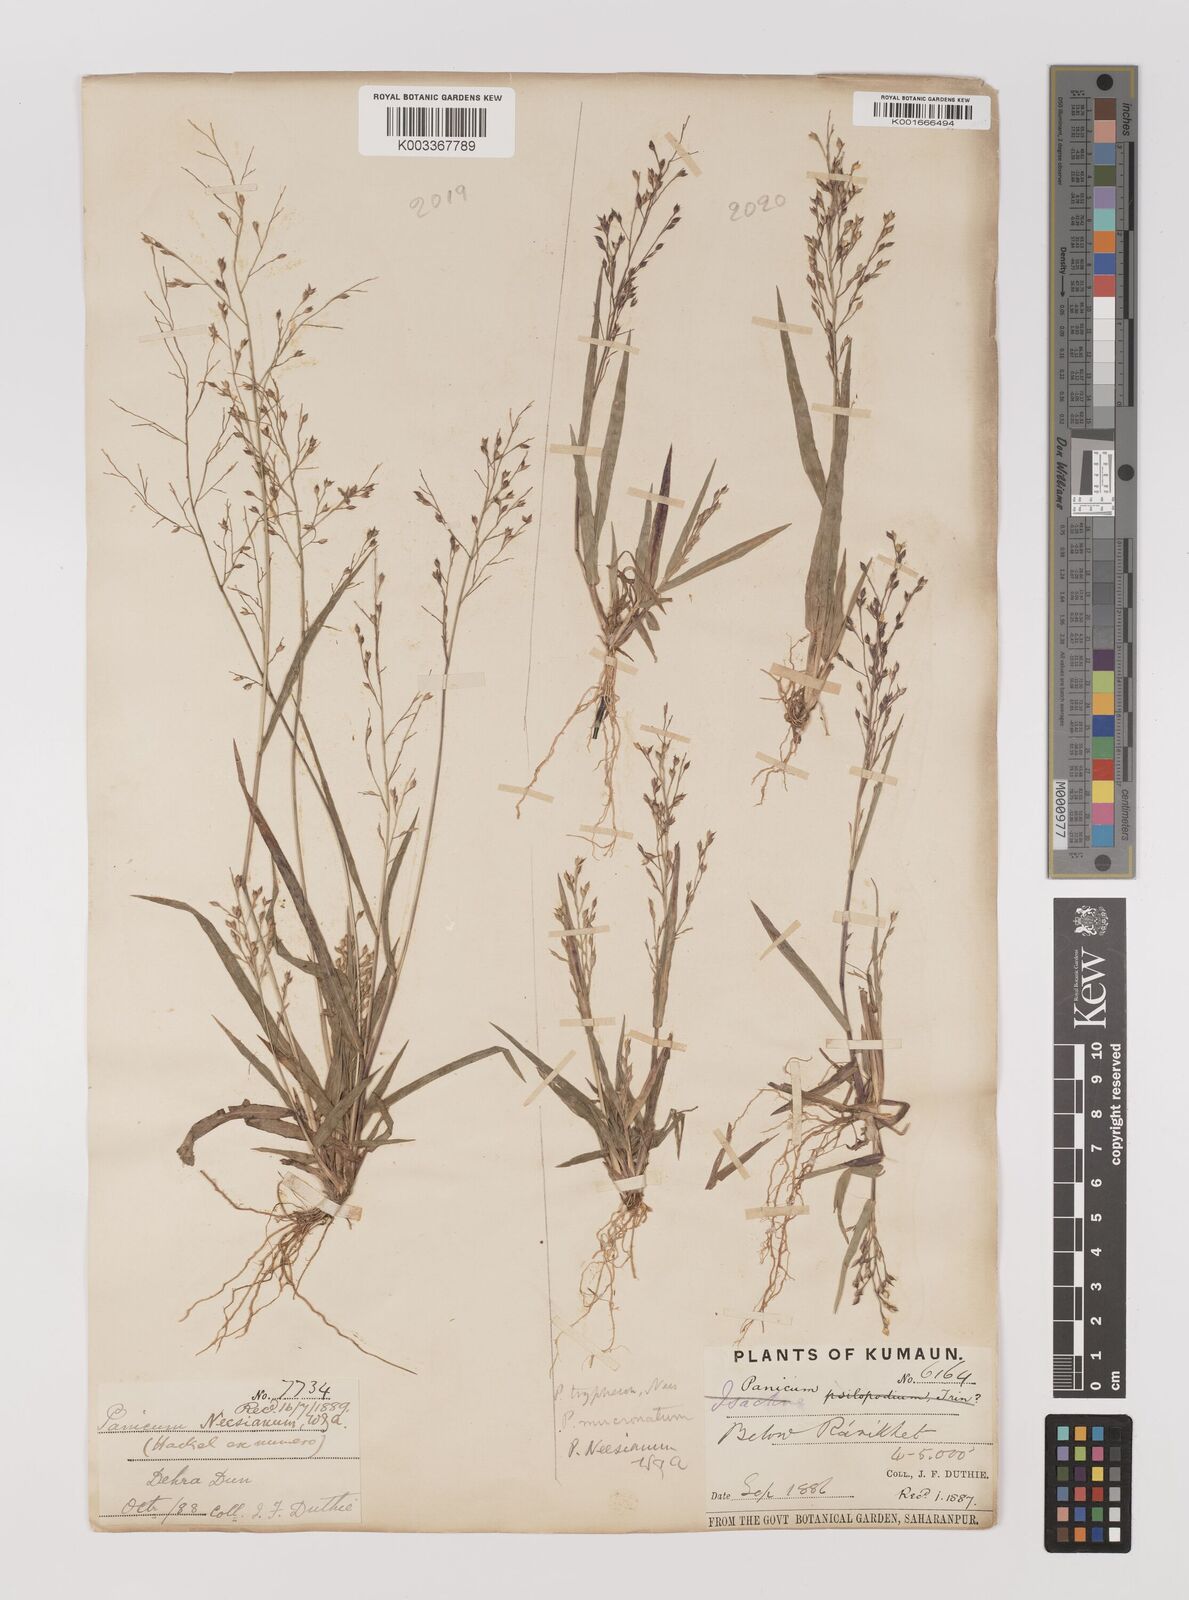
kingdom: Plantae
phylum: Tracheophyta
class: Liliopsida
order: Poales
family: Poaceae
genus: Panicum
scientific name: Panicum curviflorum
